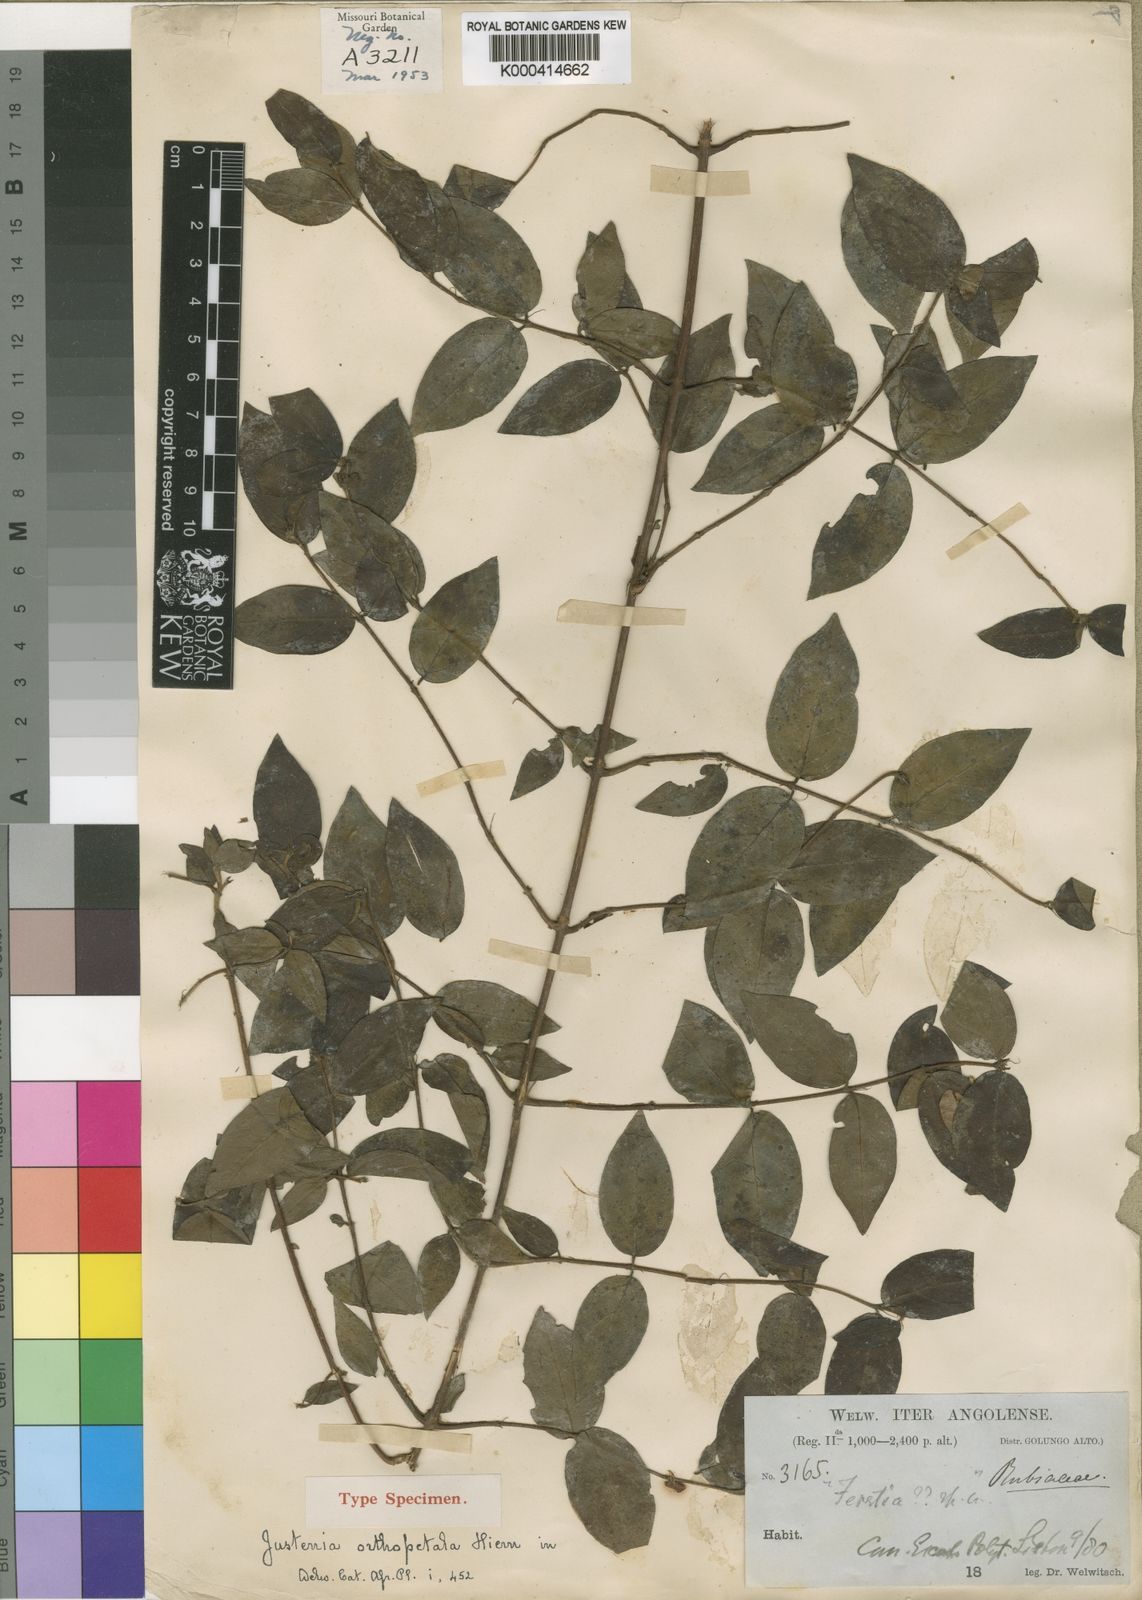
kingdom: Plantae
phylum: Tracheophyta
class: Magnoliopsida
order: Gentianales
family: Rubiaceae
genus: Bertiera
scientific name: Bertiera
